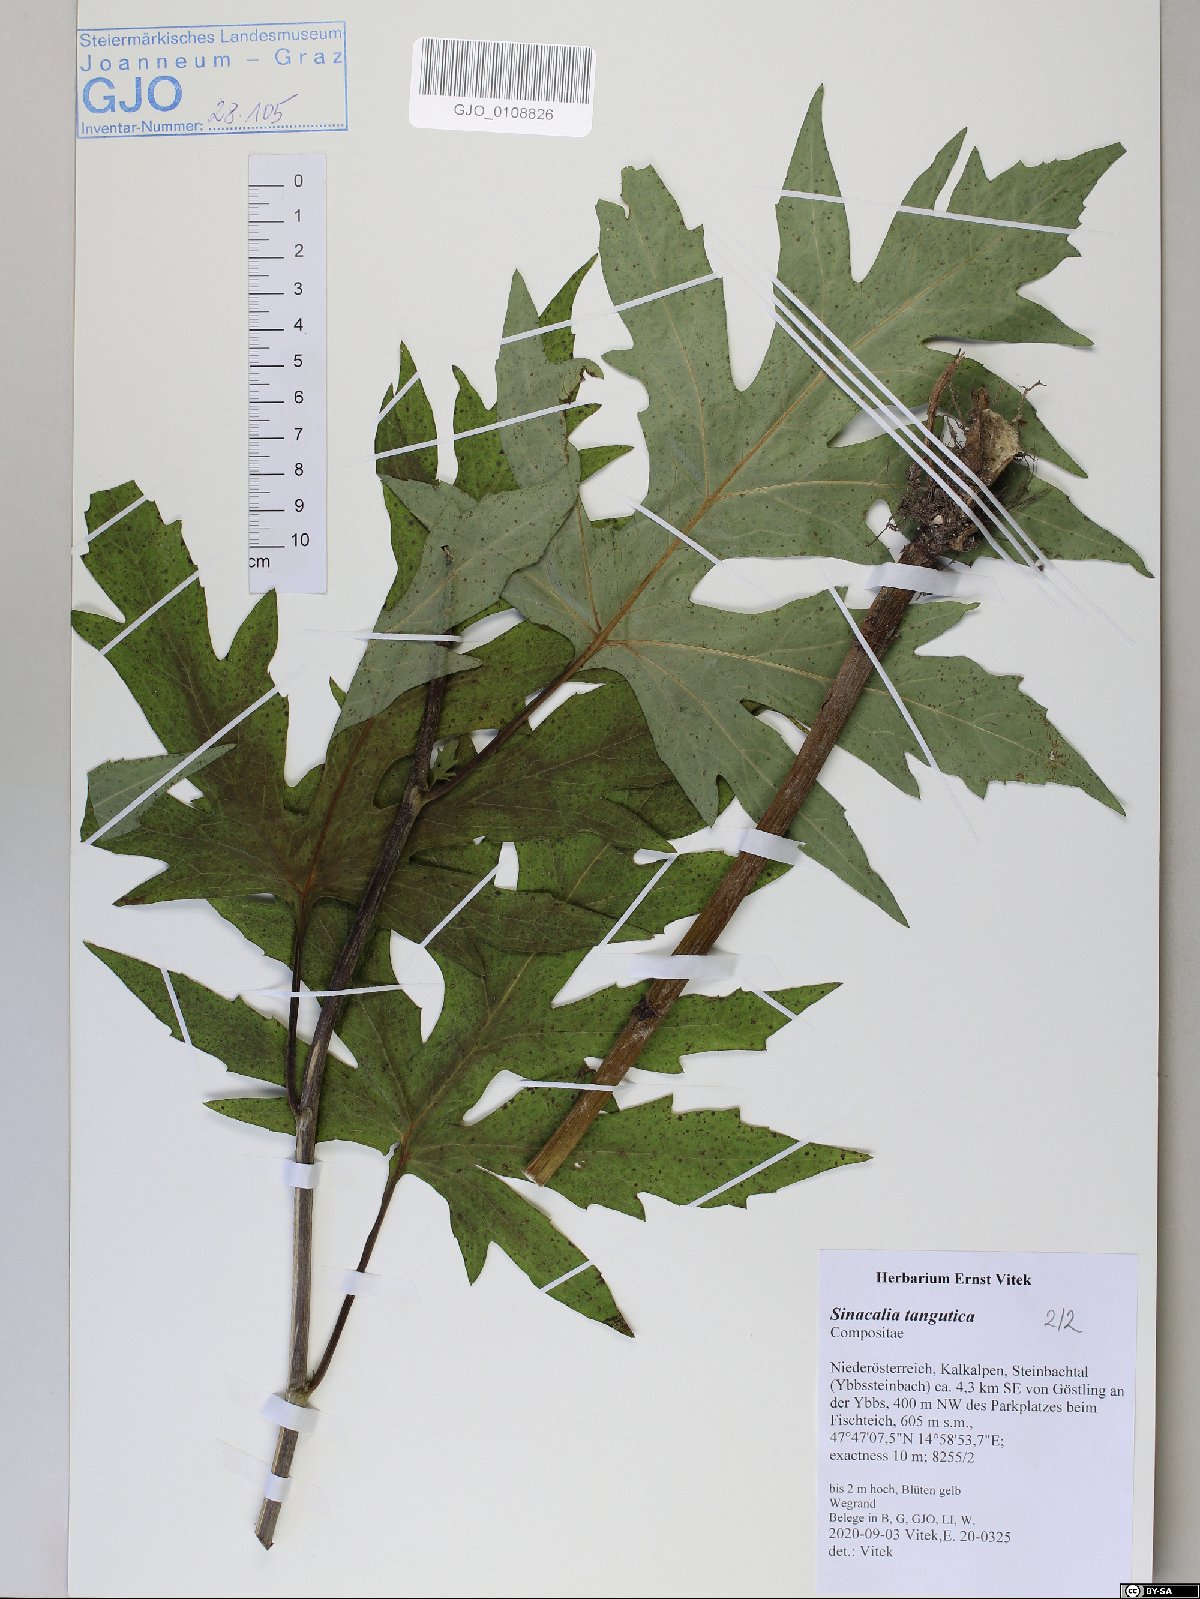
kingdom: Plantae
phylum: Tracheophyta
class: Magnoliopsida
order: Asterales
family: Asteraceae
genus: Sinacalia
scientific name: Sinacalia tangutica
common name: Chinese ragwort
